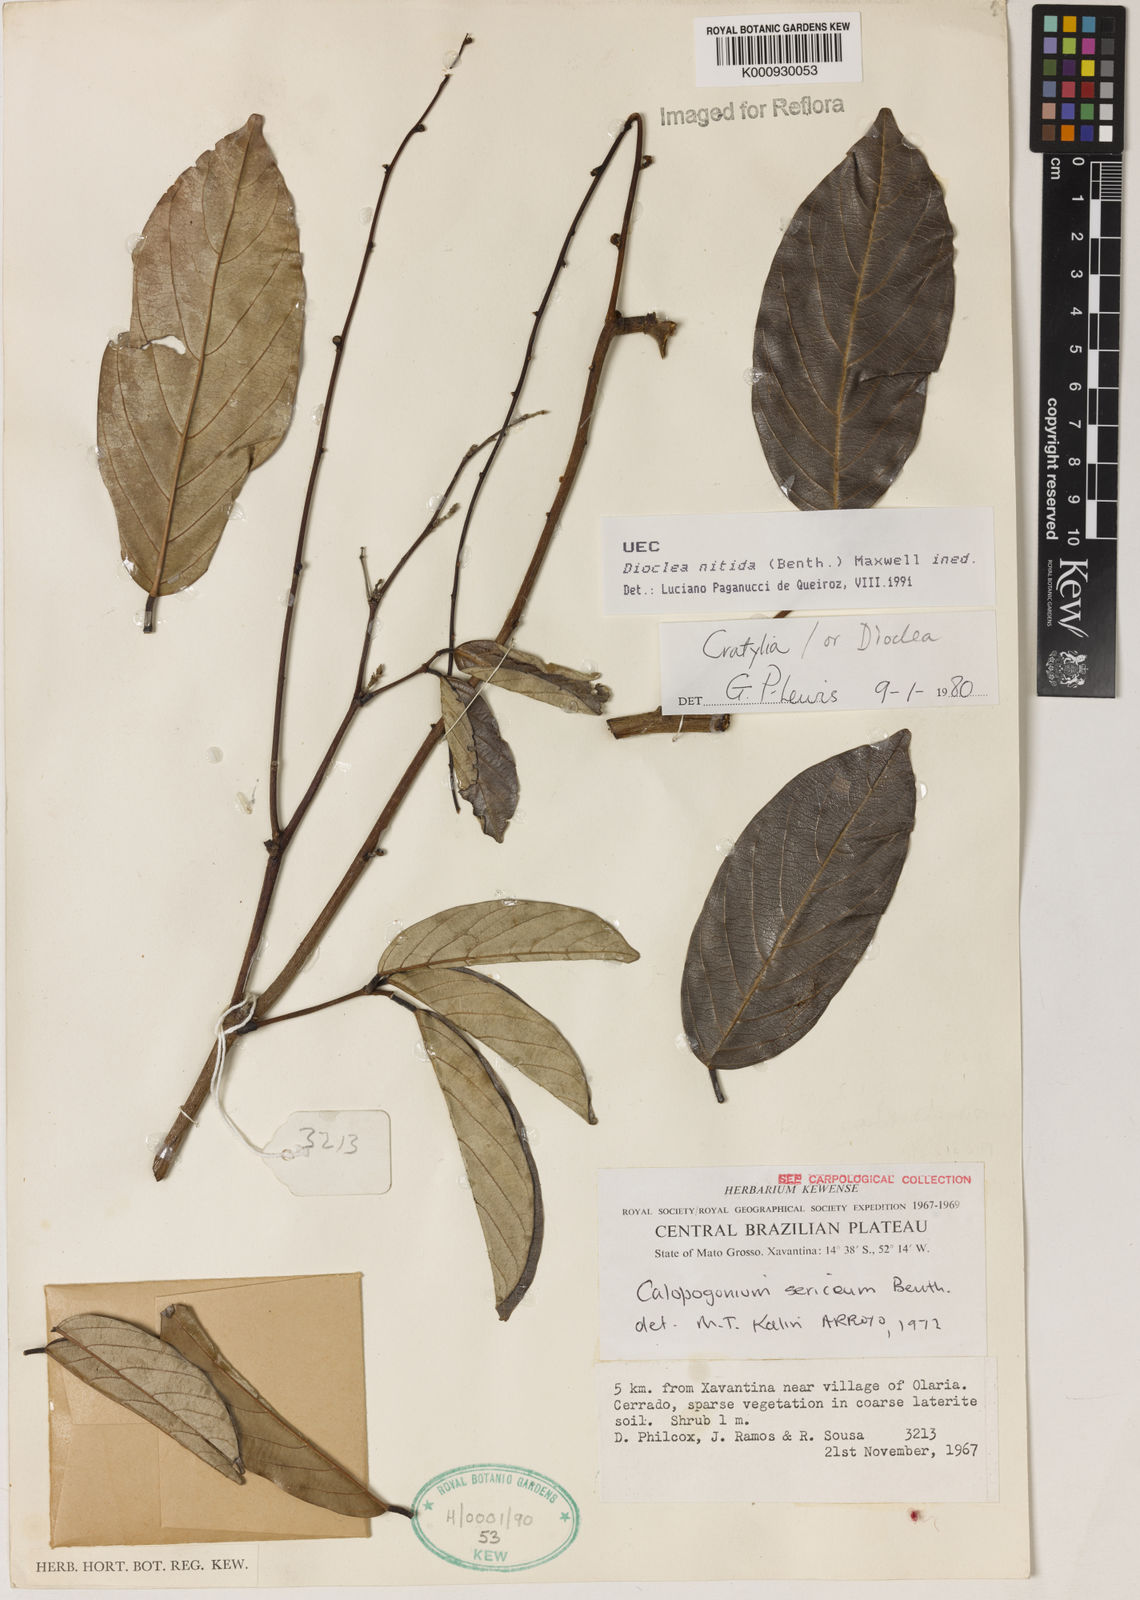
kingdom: Plantae
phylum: Tracheophyta
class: Magnoliopsida
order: Fabales
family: Fabaceae
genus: Dioclea
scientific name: Dioclea
